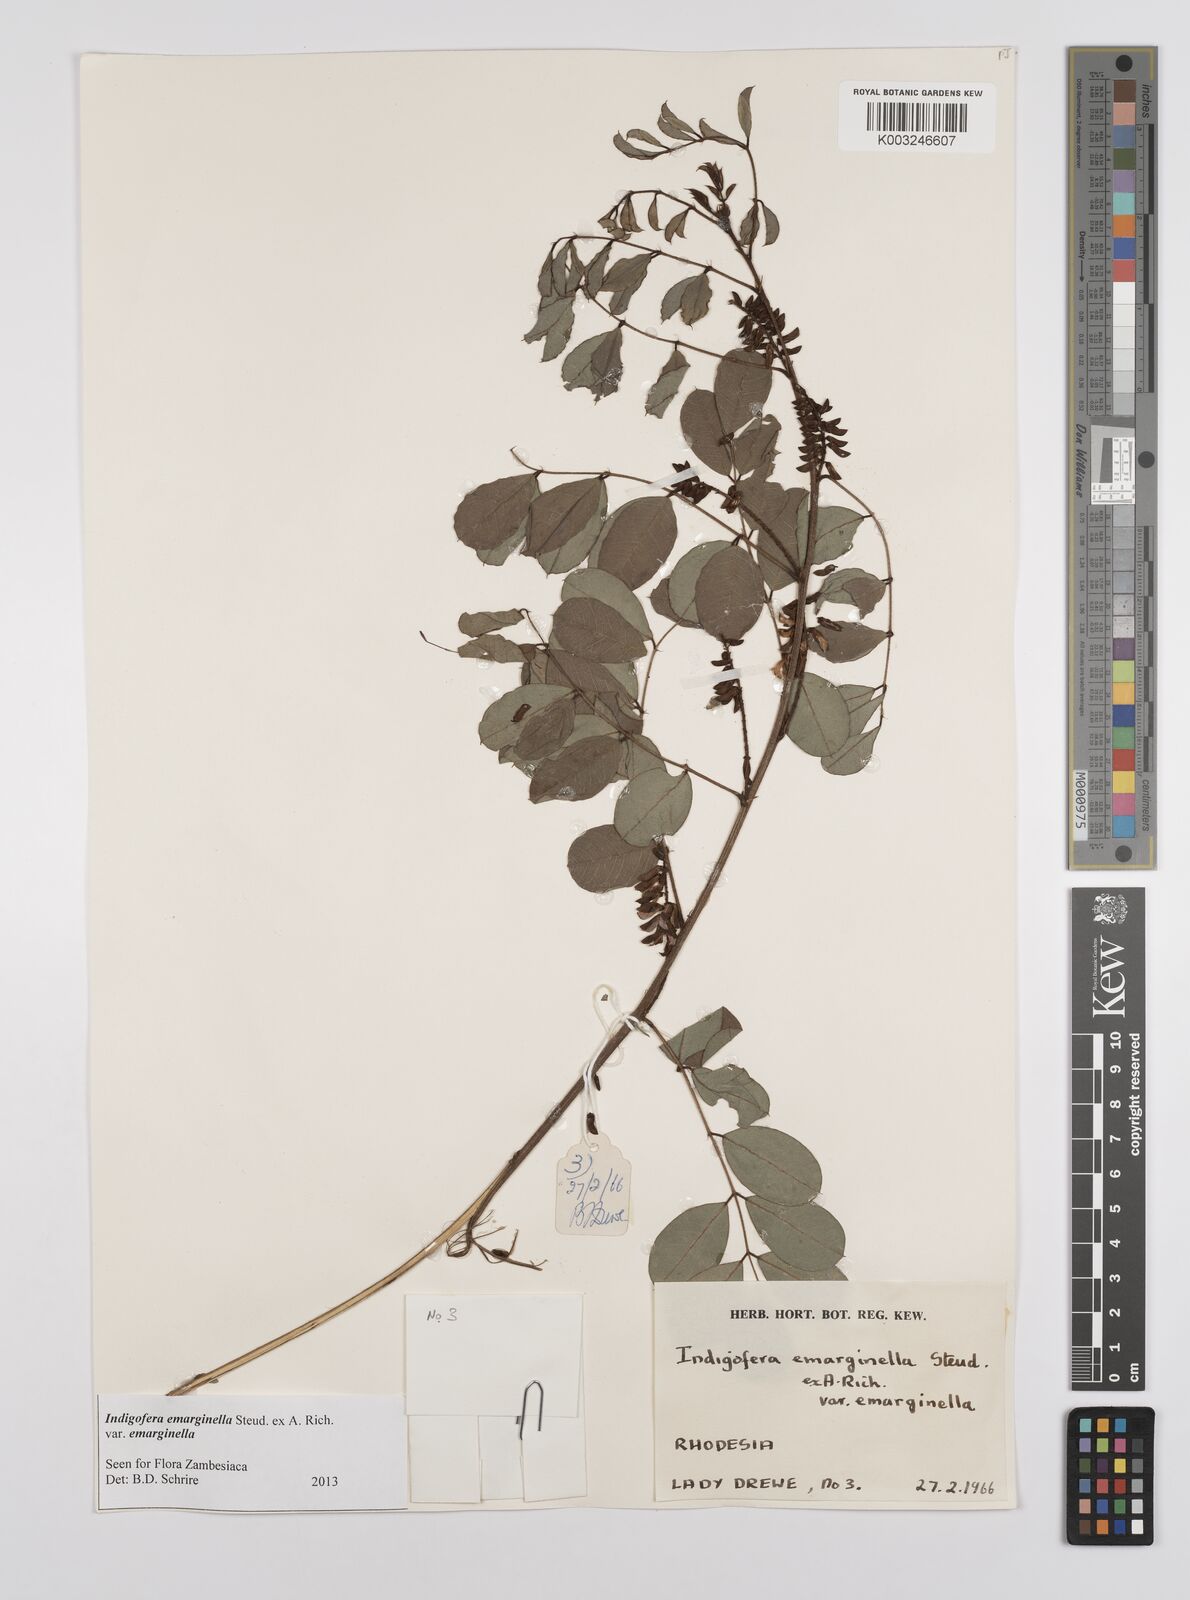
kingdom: Plantae
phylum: Tracheophyta
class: Magnoliopsida
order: Fabales
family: Fabaceae
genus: Indigofera
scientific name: Indigofera emarginella
